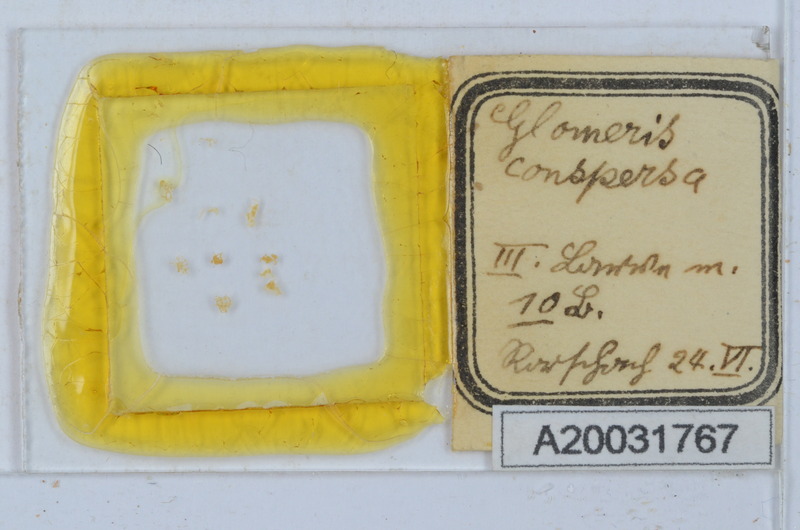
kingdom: Animalia
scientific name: Animalia
